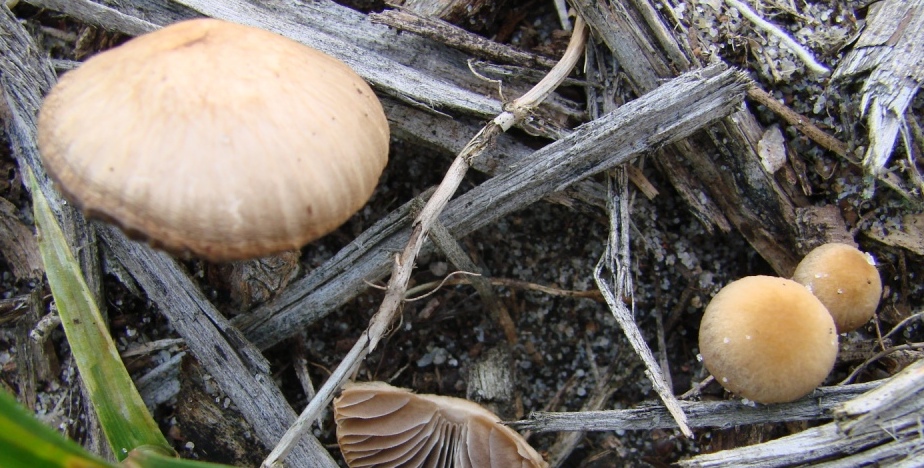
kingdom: Fungi
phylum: Basidiomycota
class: Agaricomycetes
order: Agaricales
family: Psathyrellaceae
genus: Psathyrella
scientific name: Psathyrella senex
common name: brunøjet mørkhat
